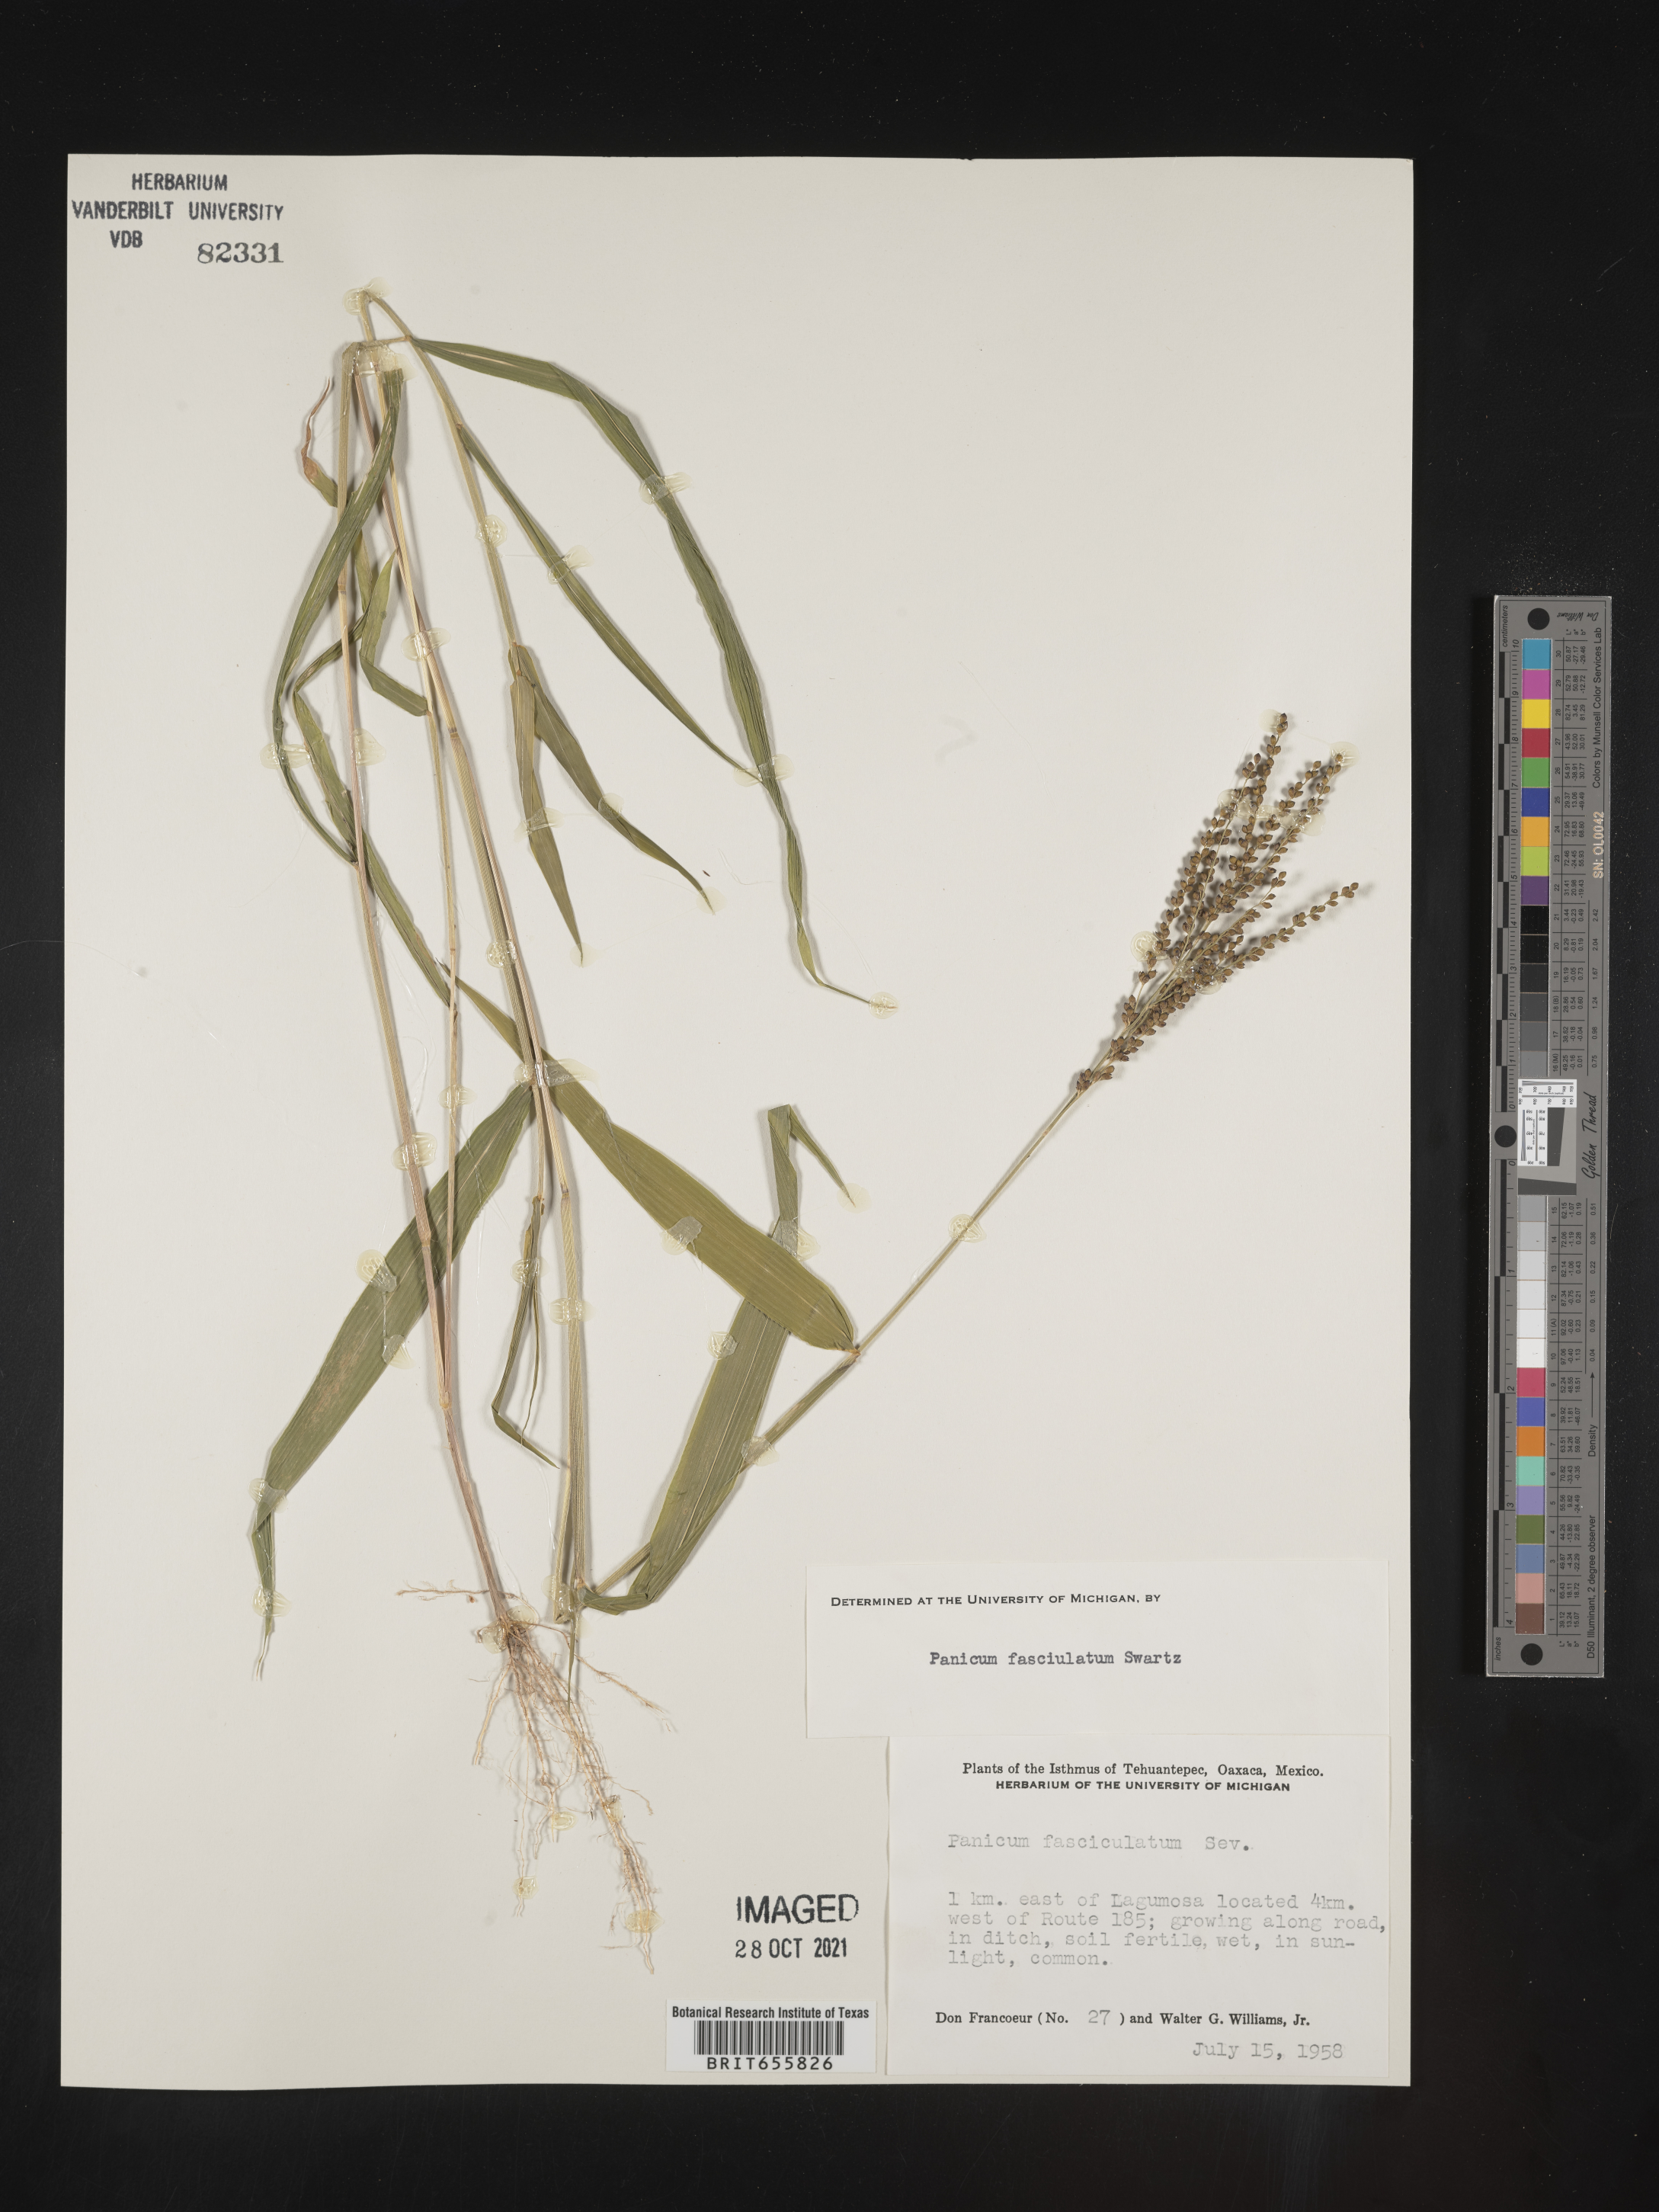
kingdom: Plantae
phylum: Tracheophyta
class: Liliopsida
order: Poales
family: Poaceae
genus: Panicum
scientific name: Panicum
